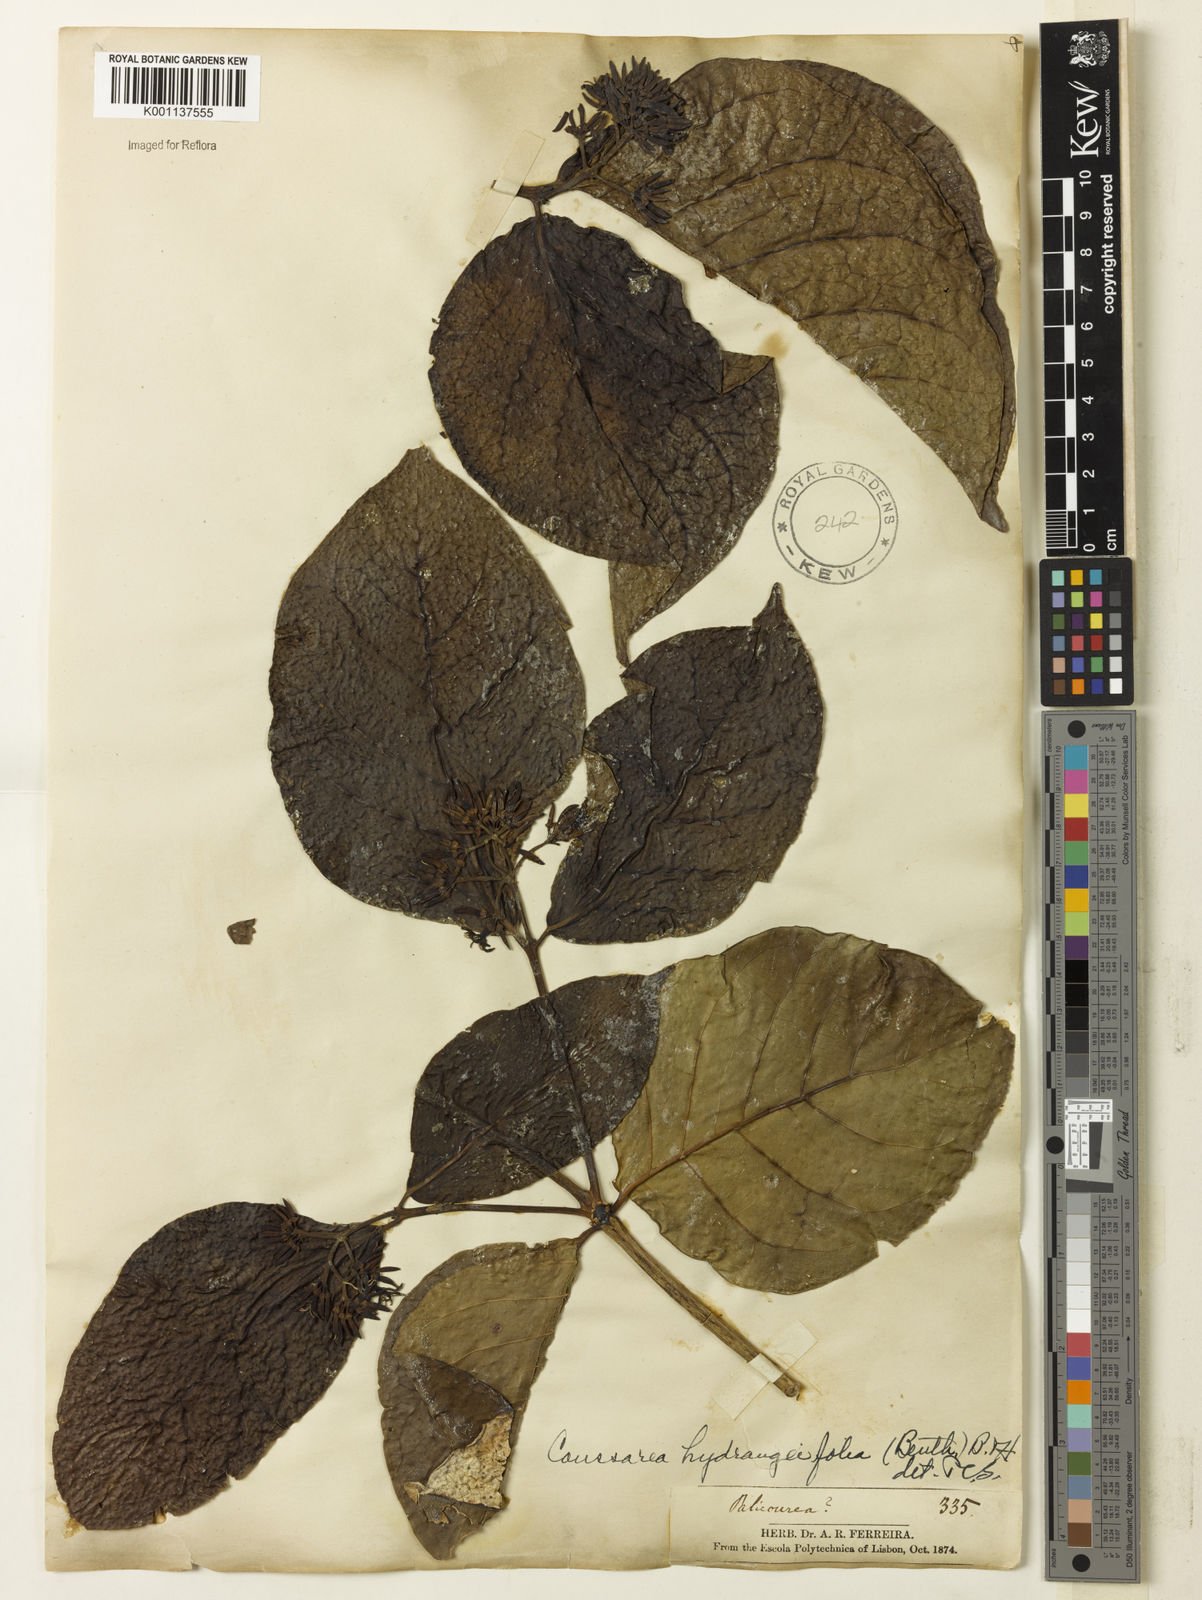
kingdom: Plantae
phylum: Tracheophyta
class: Magnoliopsida
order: Gentianales
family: Rubiaceae
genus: Coussarea
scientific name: Coussarea
